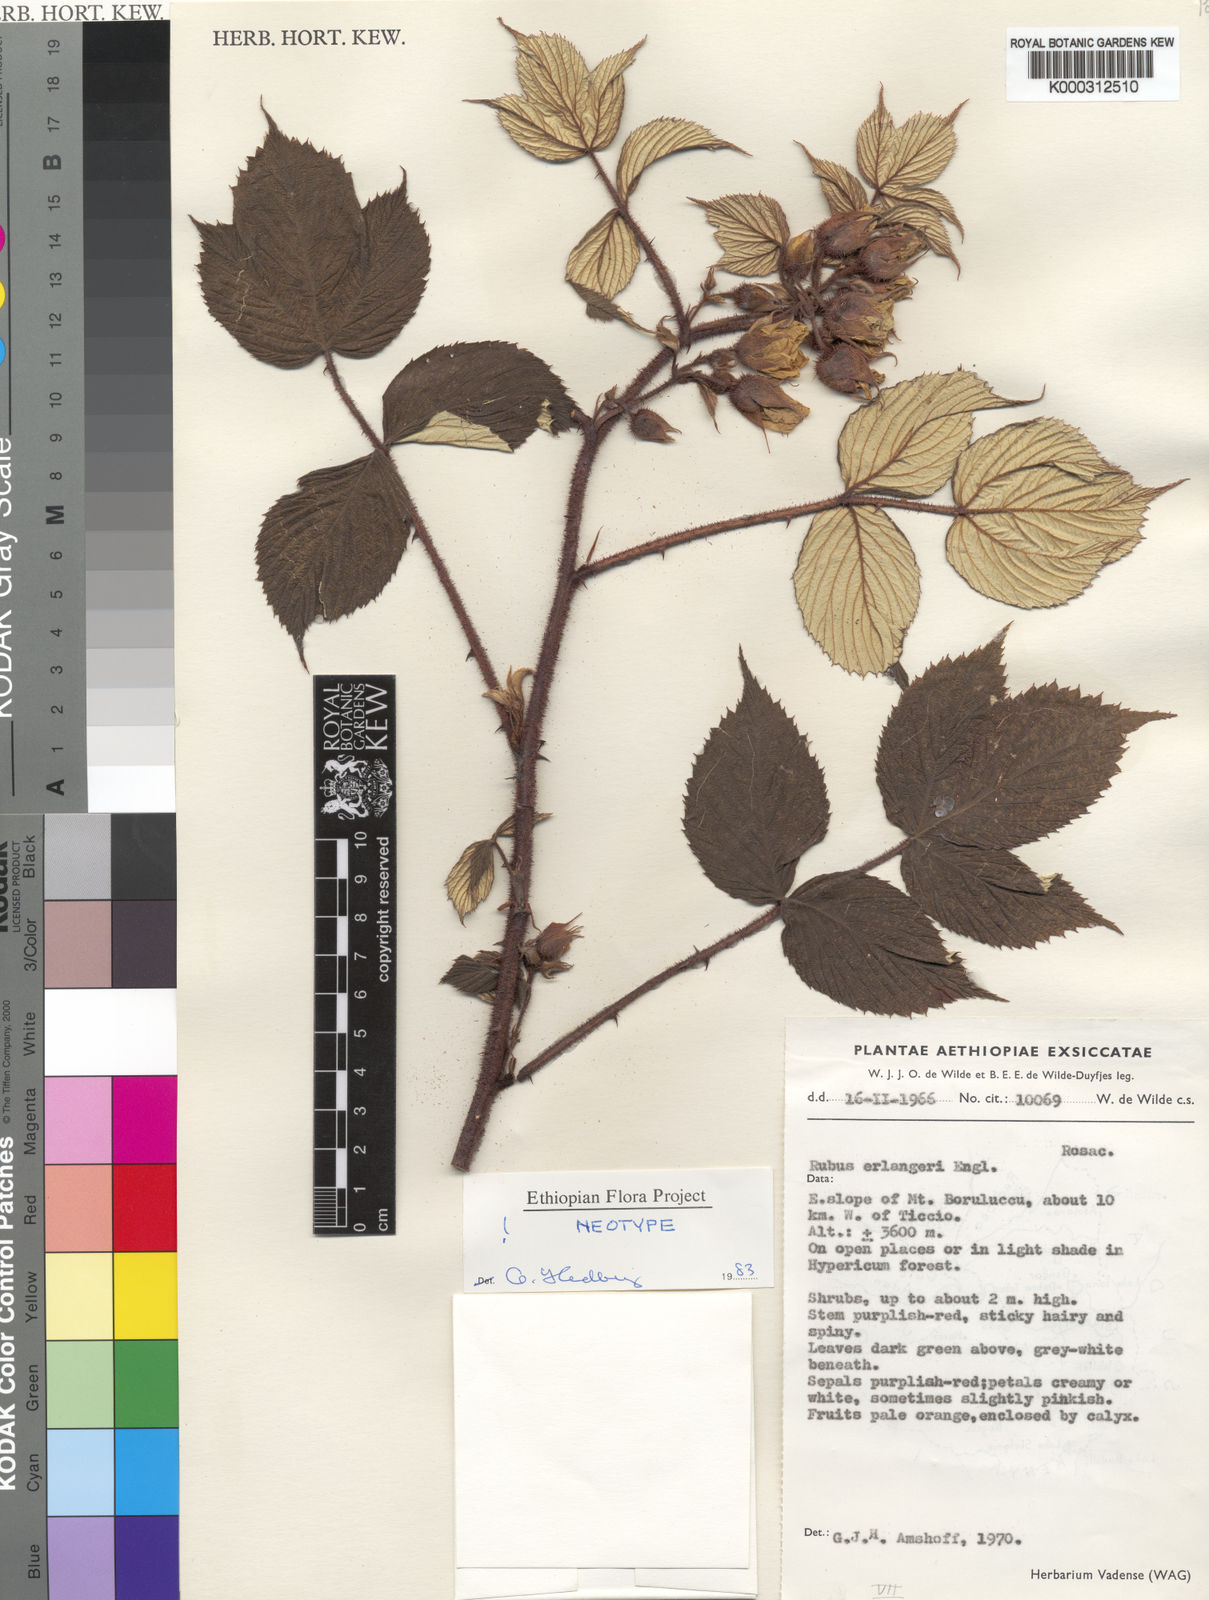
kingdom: Plantae
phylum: Tracheophyta
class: Magnoliopsida
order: Rosales
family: Rosaceae
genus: Rubus
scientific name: Rubus erlangeri
